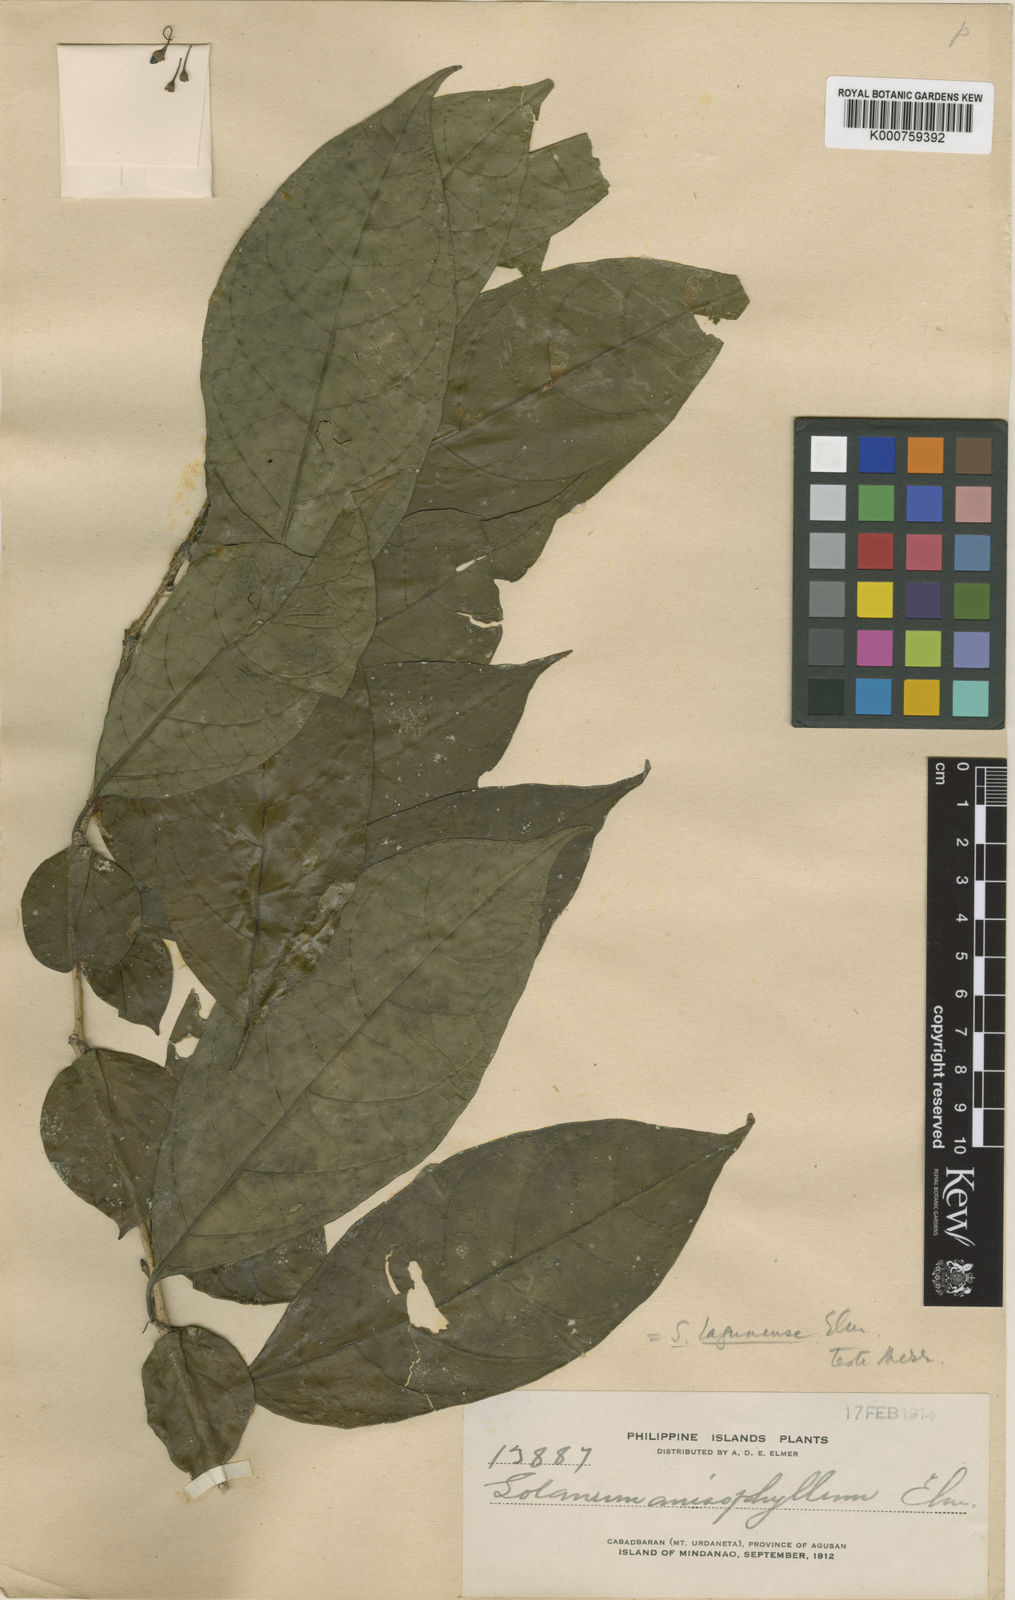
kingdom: Plantae
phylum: Tracheophyta
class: Magnoliopsida
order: Solanales
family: Solanaceae
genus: Lycianthes
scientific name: Lycianthes lagunensis
